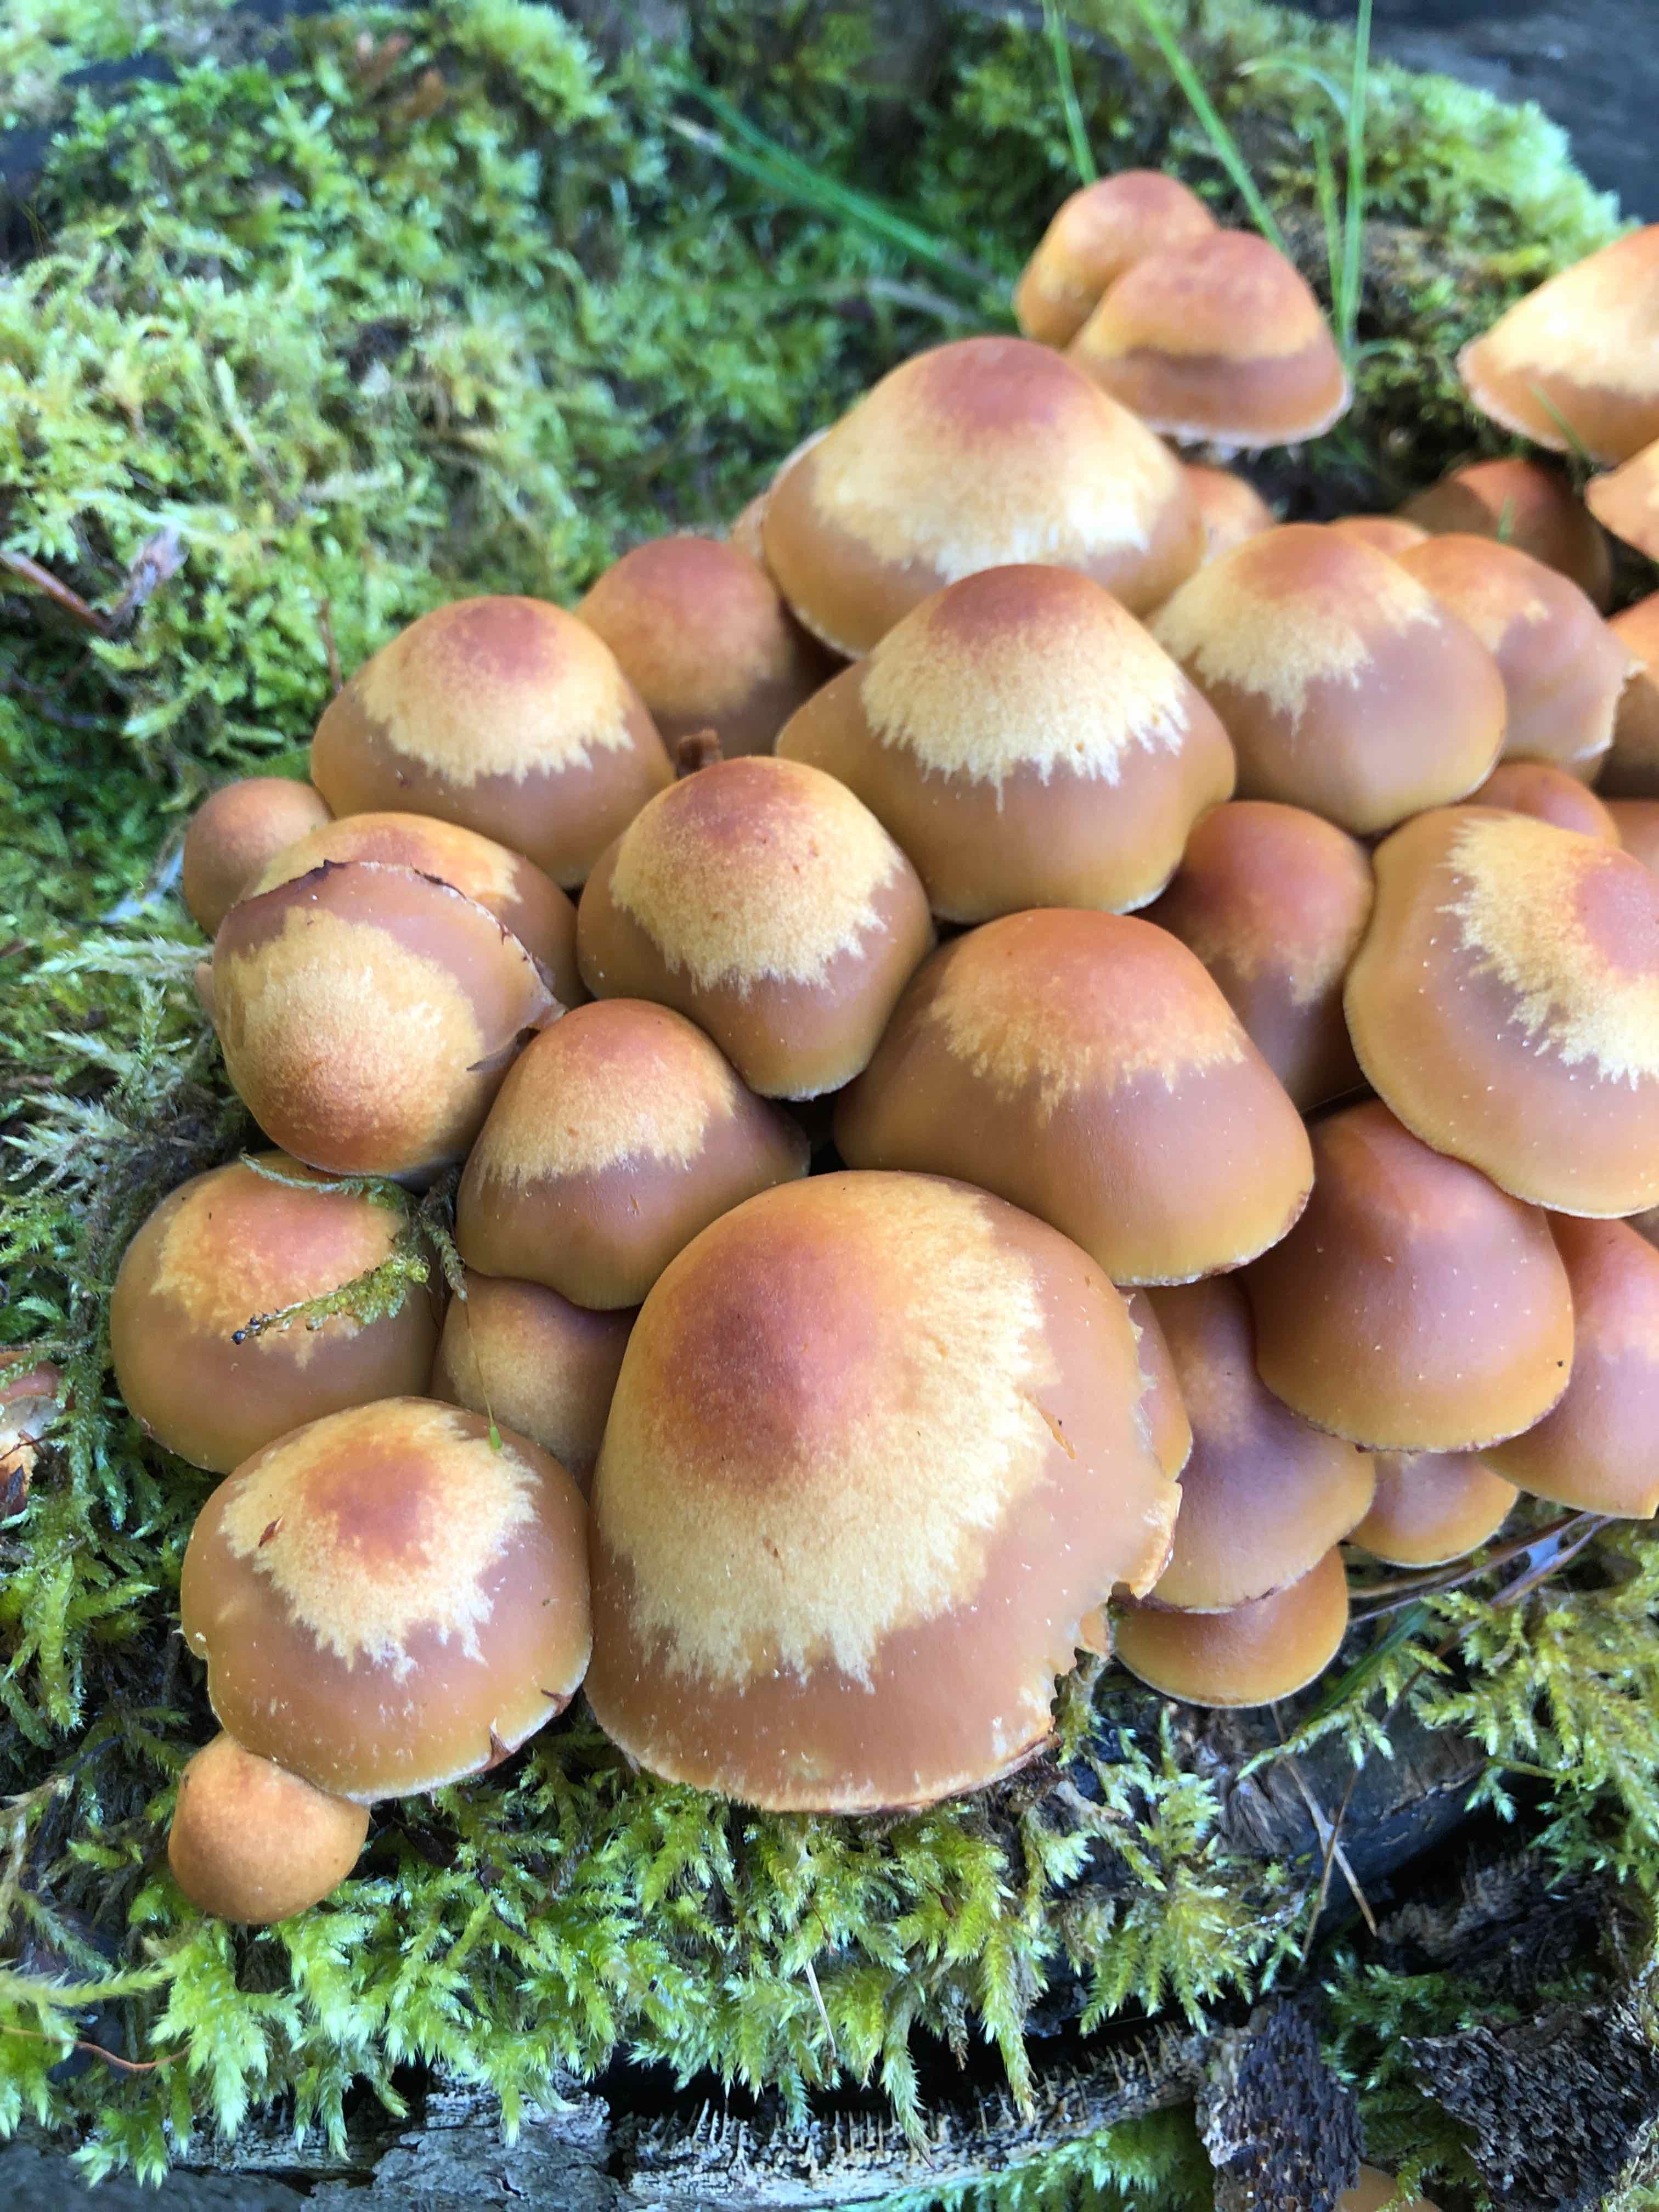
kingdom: Fungi
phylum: Basidiomycota
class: Agaricomycetes
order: Agaricales
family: Strophariaceae
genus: Kuehneromyces
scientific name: Kuehneromyces mutabilis
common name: foranderlig skælhat
